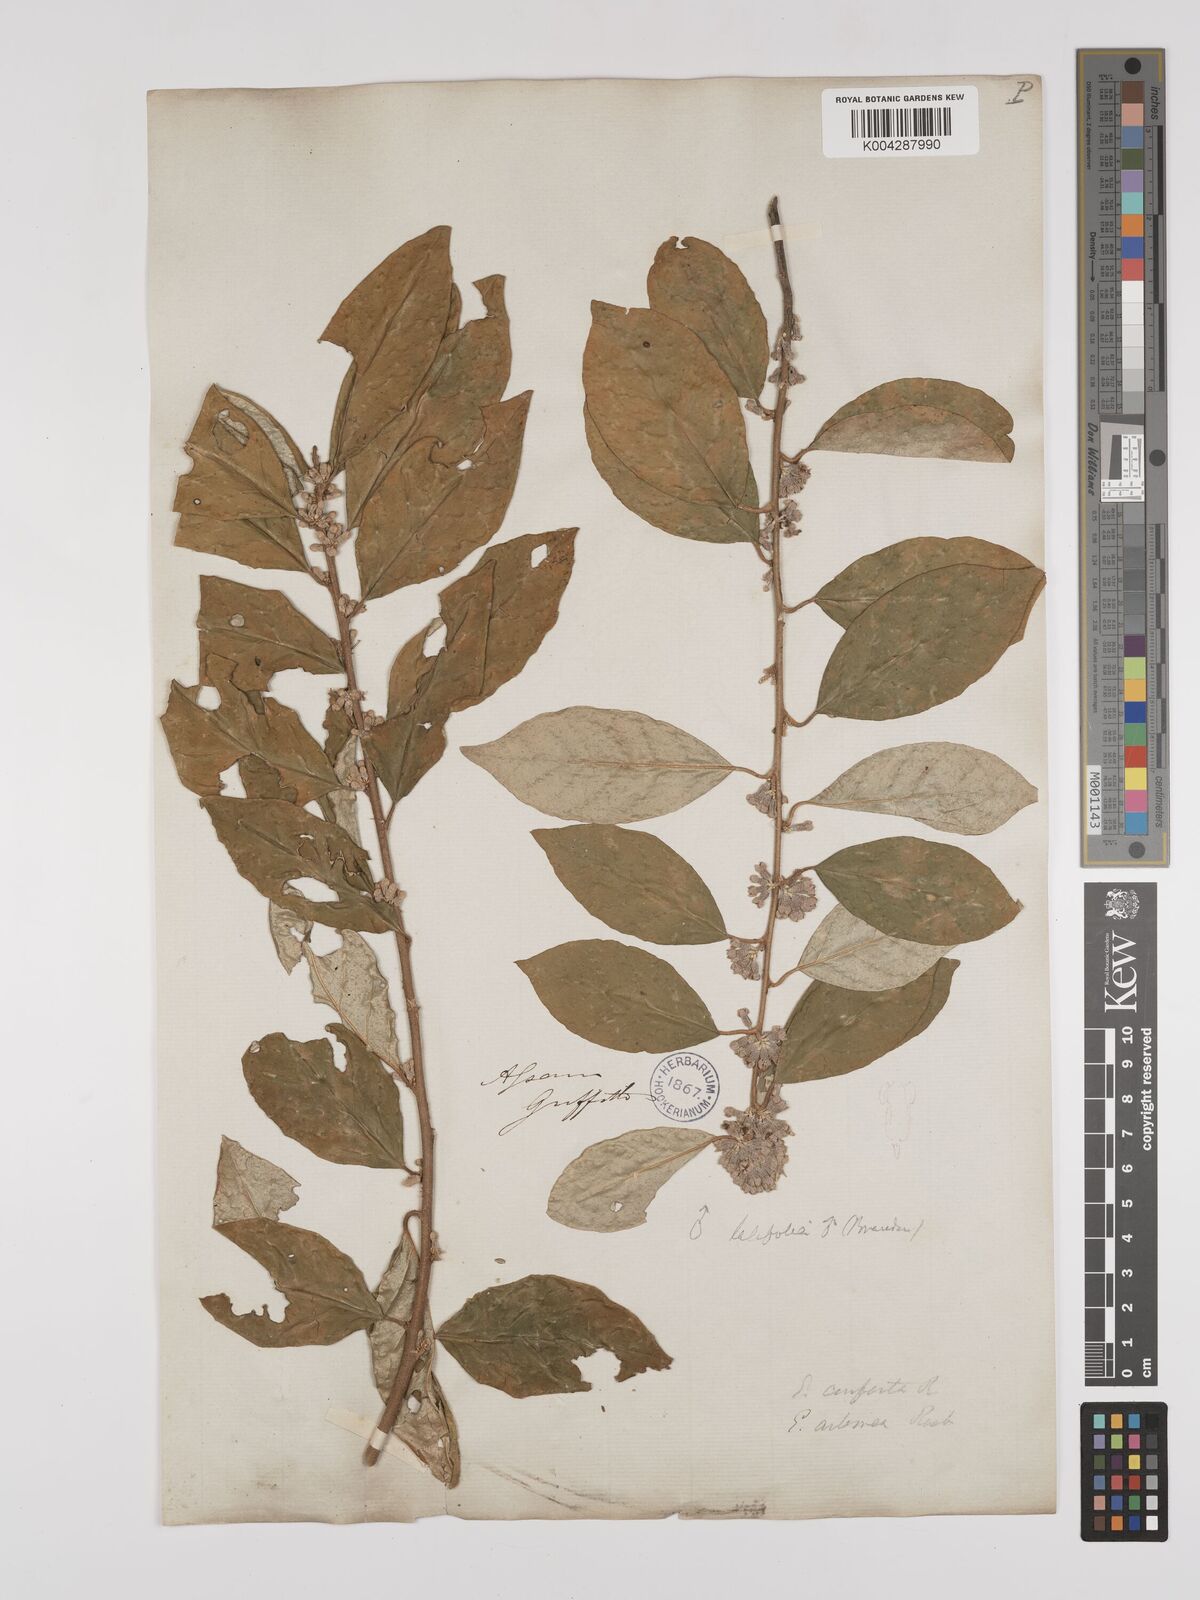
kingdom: Plantae
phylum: Tracheophyta
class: Magnoliopsida
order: Rosales
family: Elaeagnaceae
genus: Elaeagnus
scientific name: Elaeagnus latifolia
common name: Oleaster
